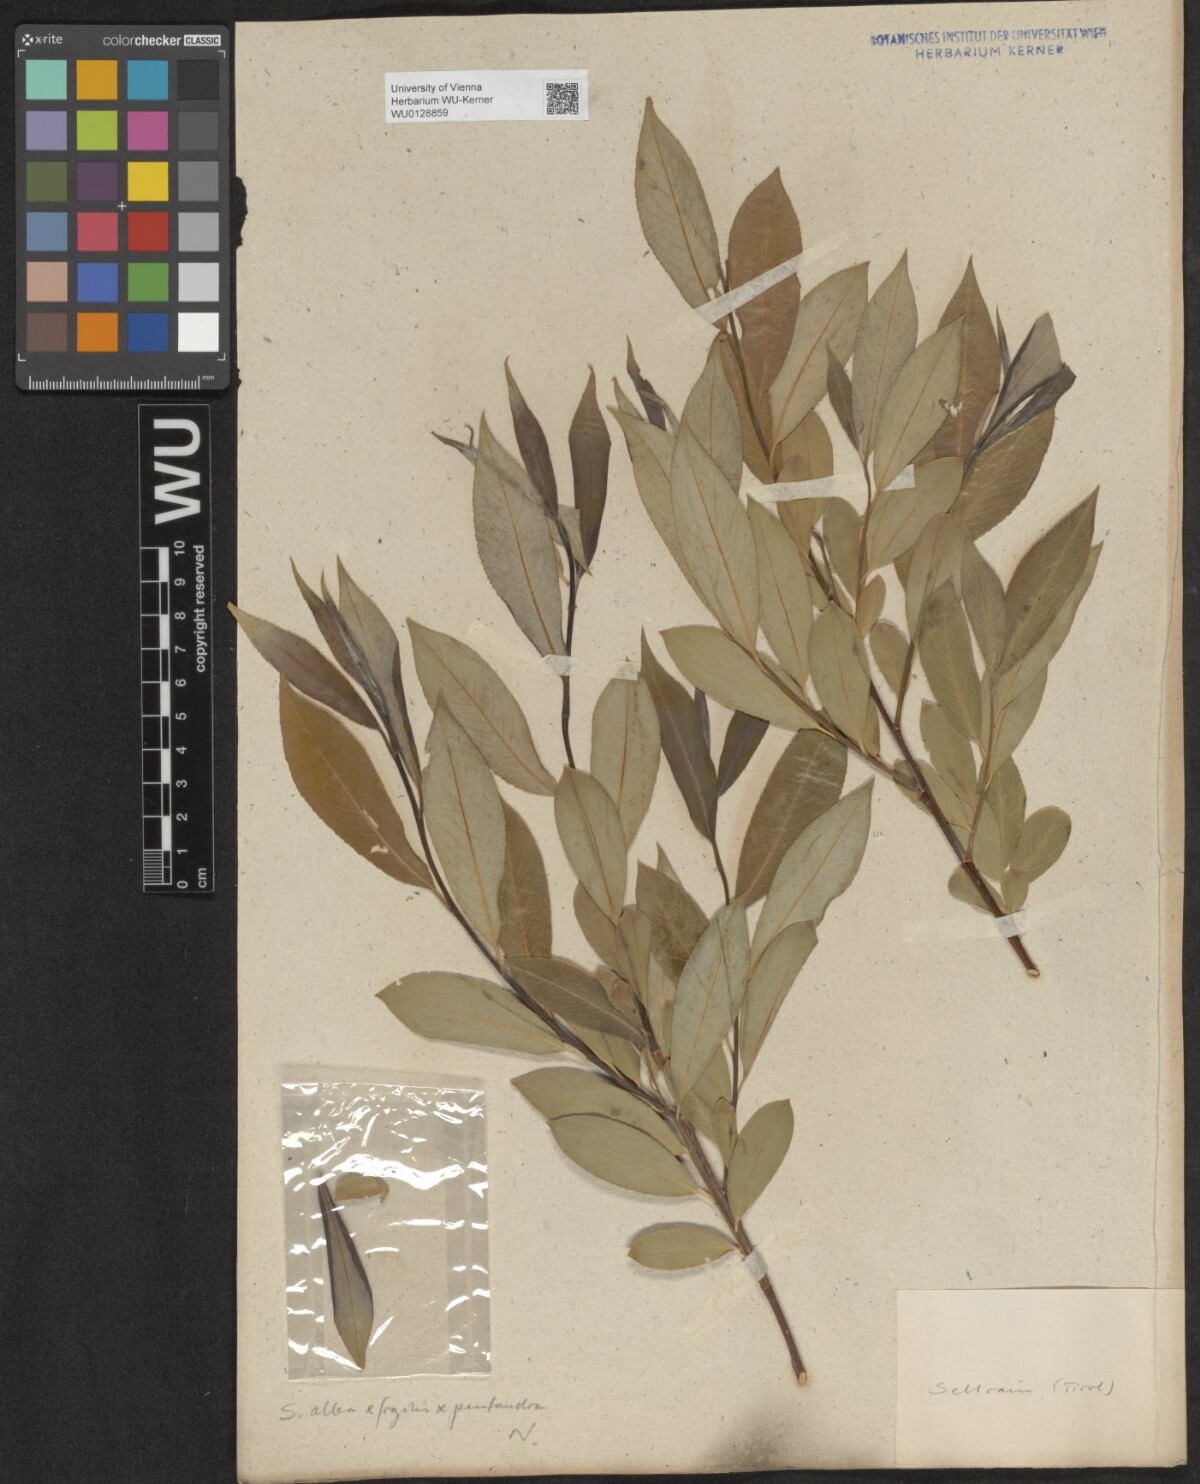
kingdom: Plantae
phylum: Tracheophyta
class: Magnoliopsida
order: Malpighiales
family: Salicaceae
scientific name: Salicaceae
